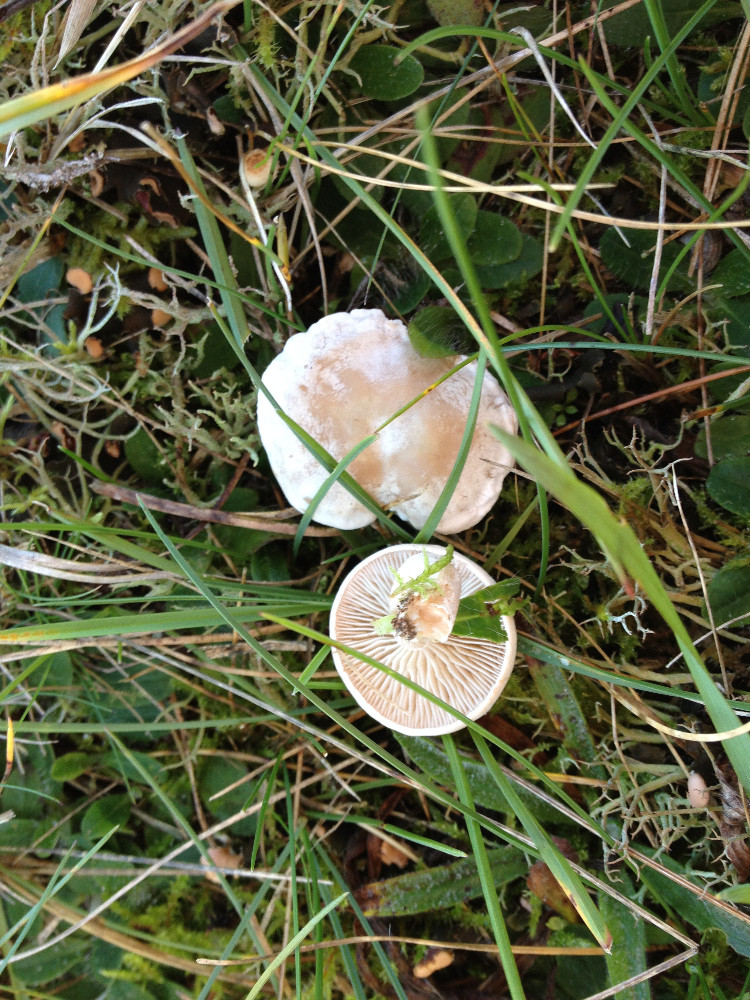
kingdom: Fungi
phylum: Basidiomycota
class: Agaricomycetes
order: Agaricales
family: Tricholomataceae
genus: Clitocybe
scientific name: Clitocybe rivulosa
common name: eng-tragthat
